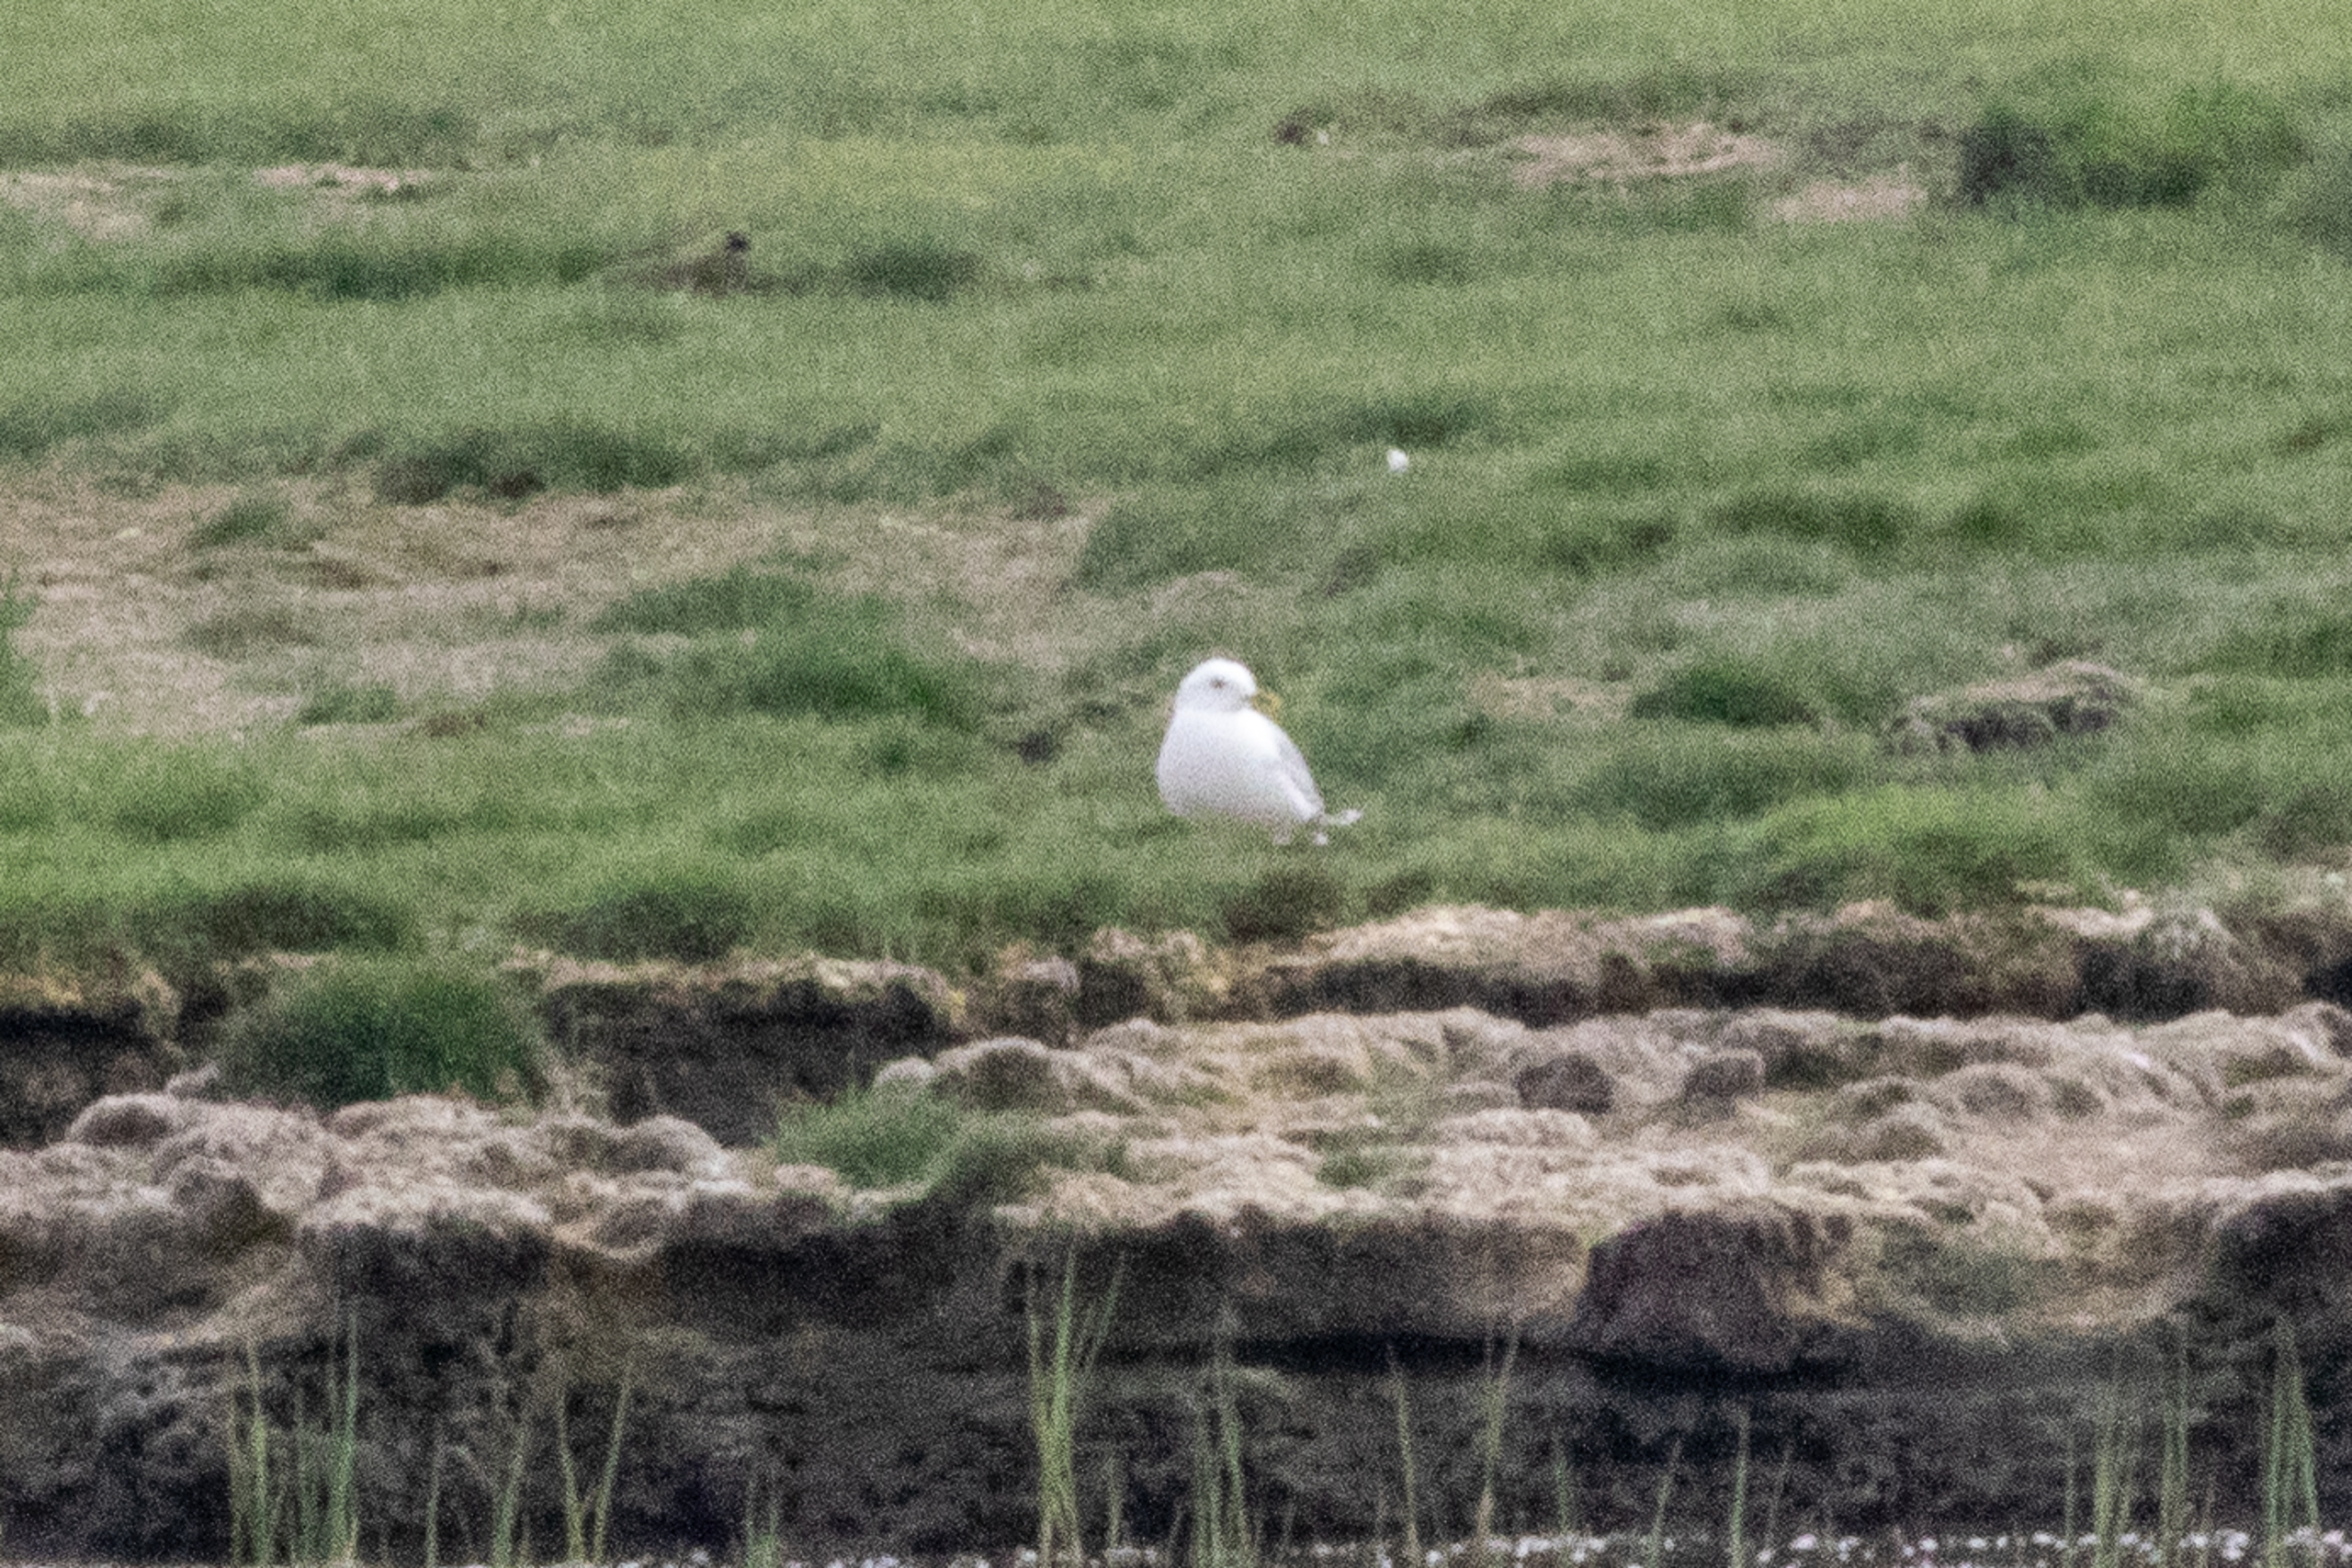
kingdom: Animalia
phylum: Chordata
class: Aves
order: Charadriiformes
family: Laridae
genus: Larus
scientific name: Larus canus
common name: Stormmåge
